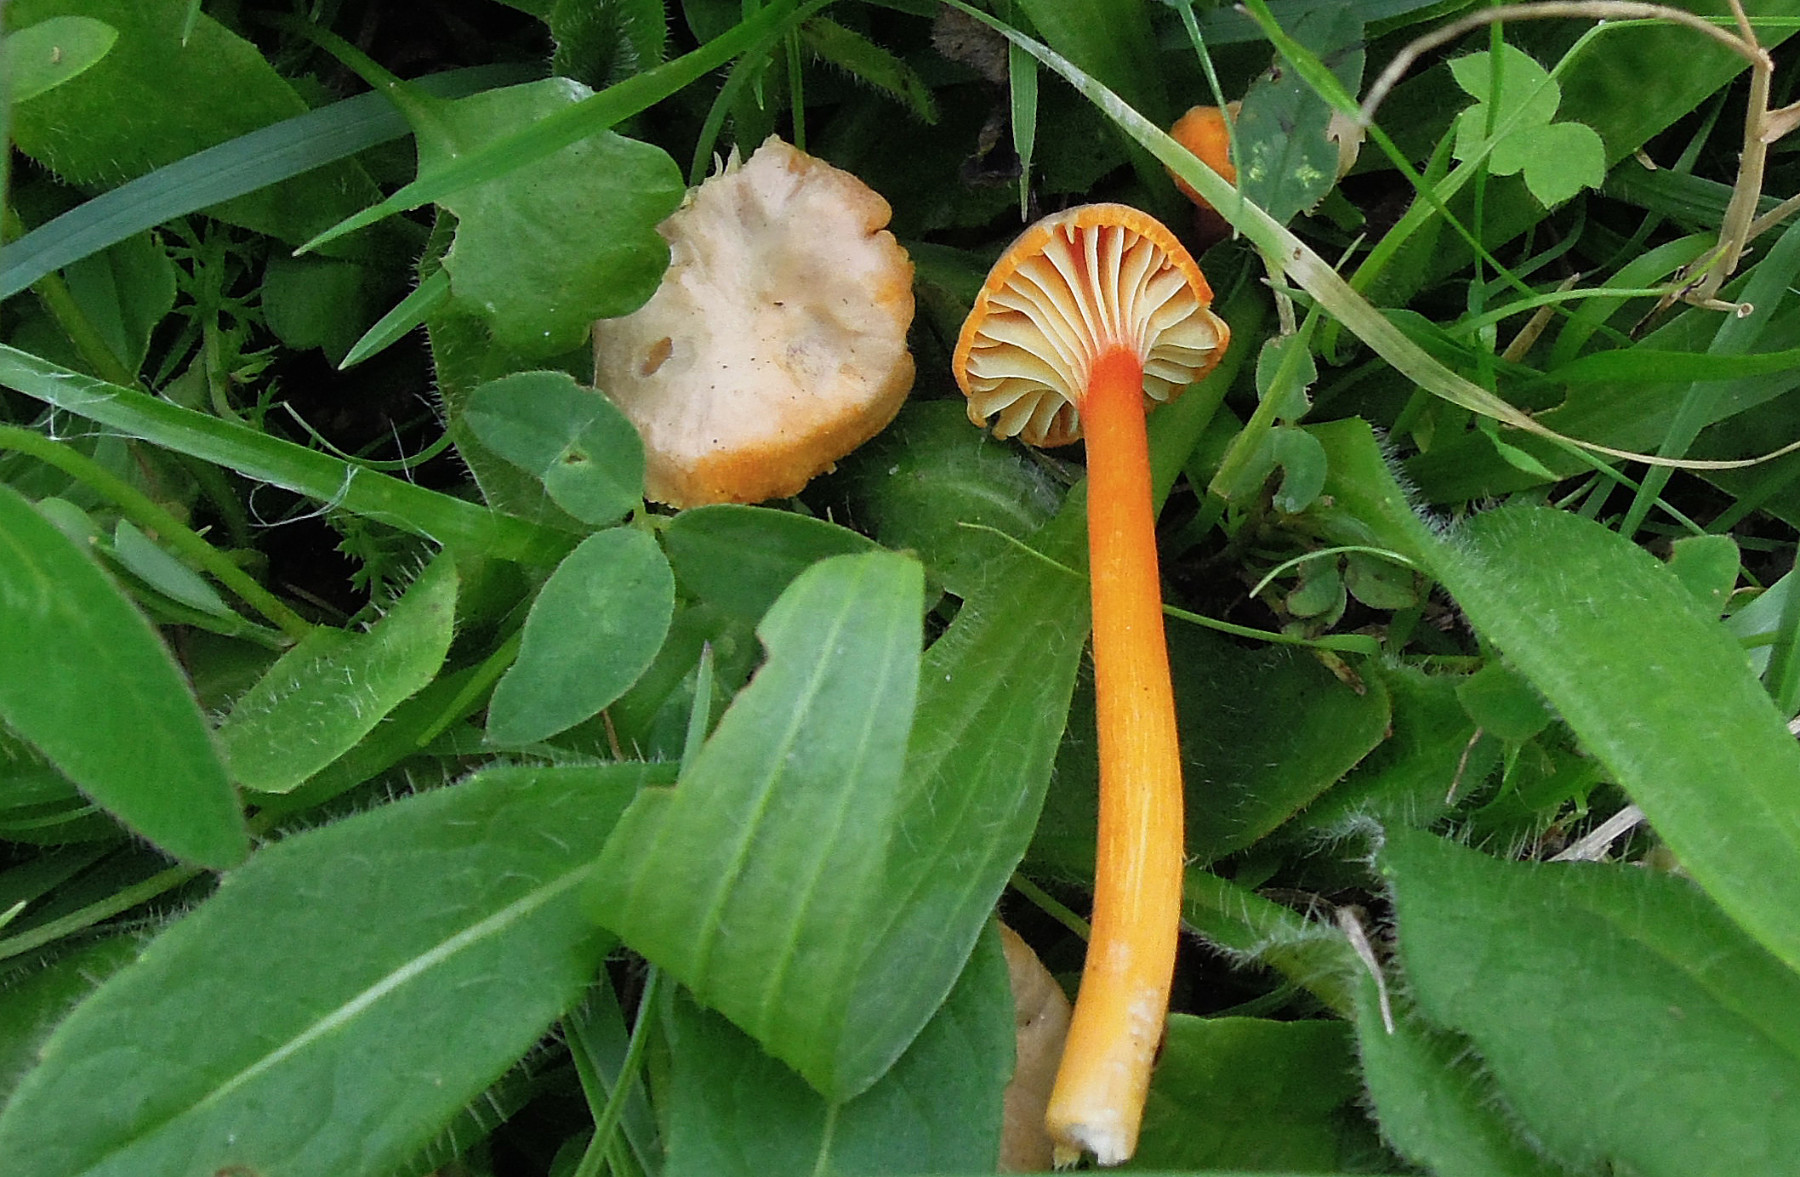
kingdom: Fungi
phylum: Basidiomycota
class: Agaricomycetes
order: Agaricales
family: Hygrophoraceae
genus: Hygrocybe
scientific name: Hygrocybe cantharellus
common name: kantarel-vokshat
